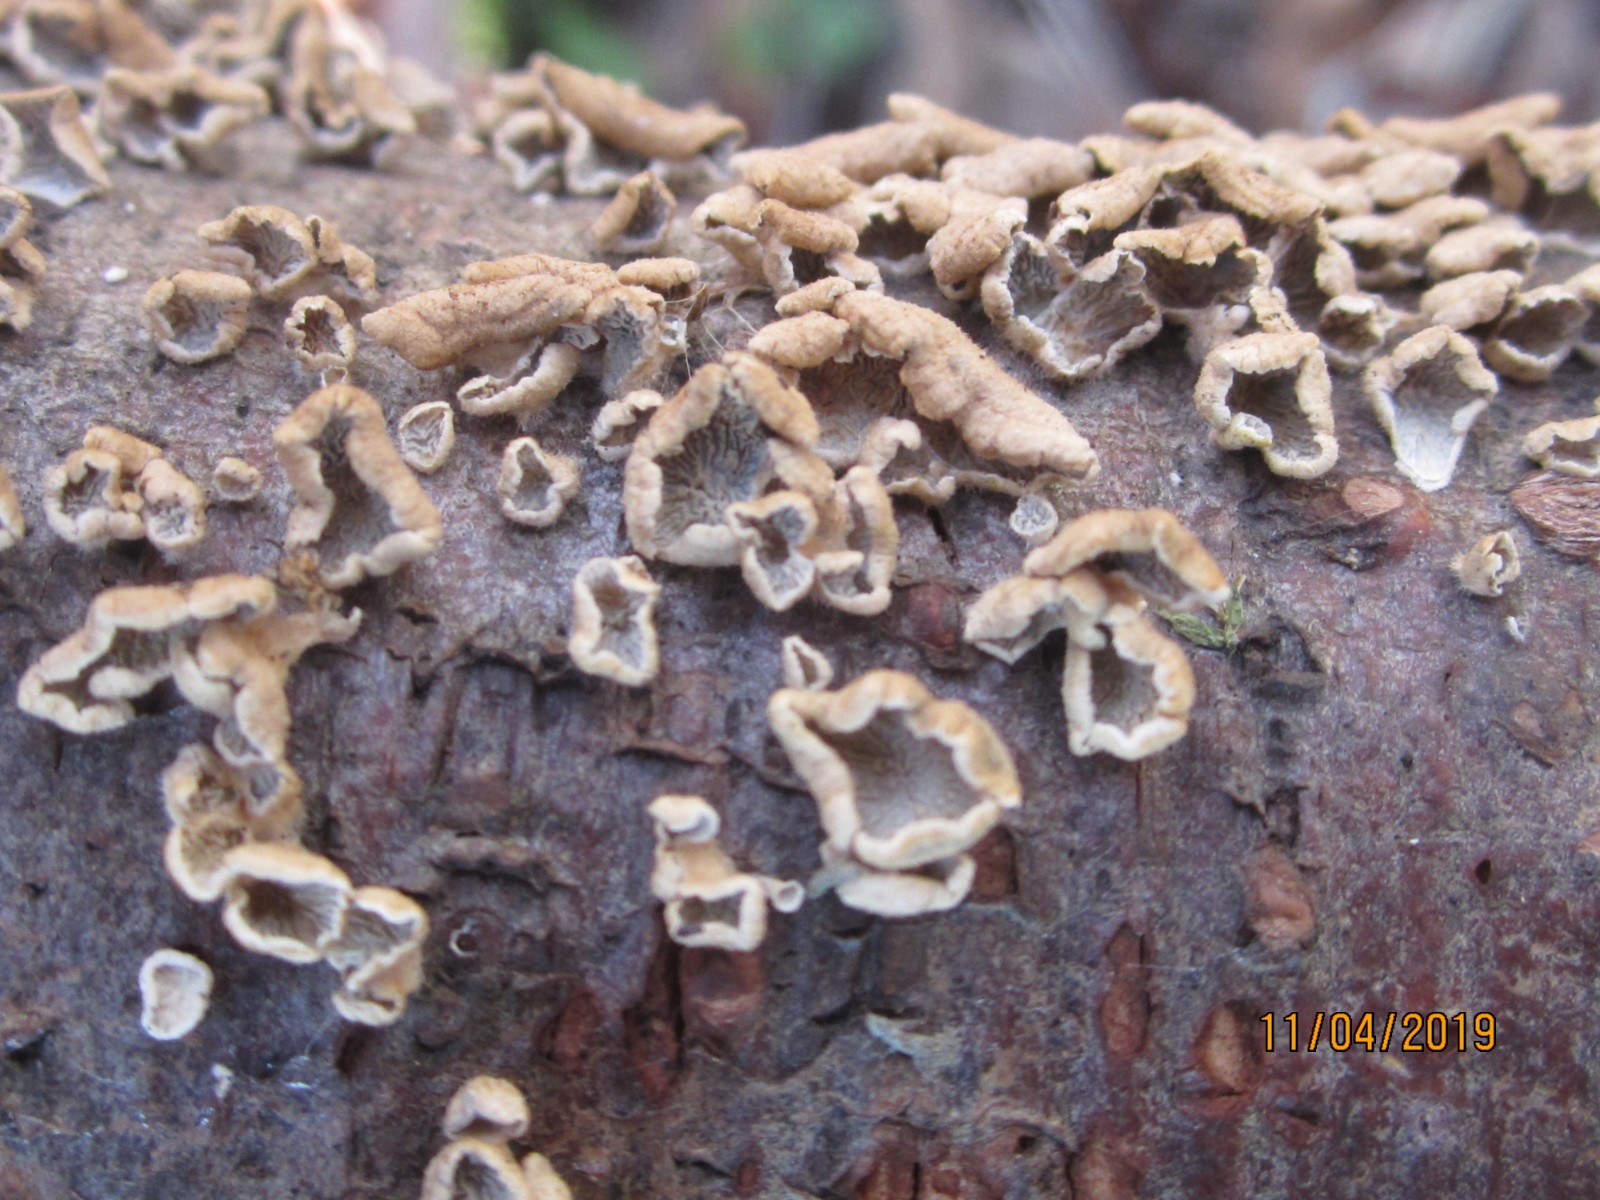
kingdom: Fungi
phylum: Basidiomycota
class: Agaricomycetes
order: Amylocorticiales
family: Amylocorticiaceae
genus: Plicaturopsis
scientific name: Plicaturopsis crispa
